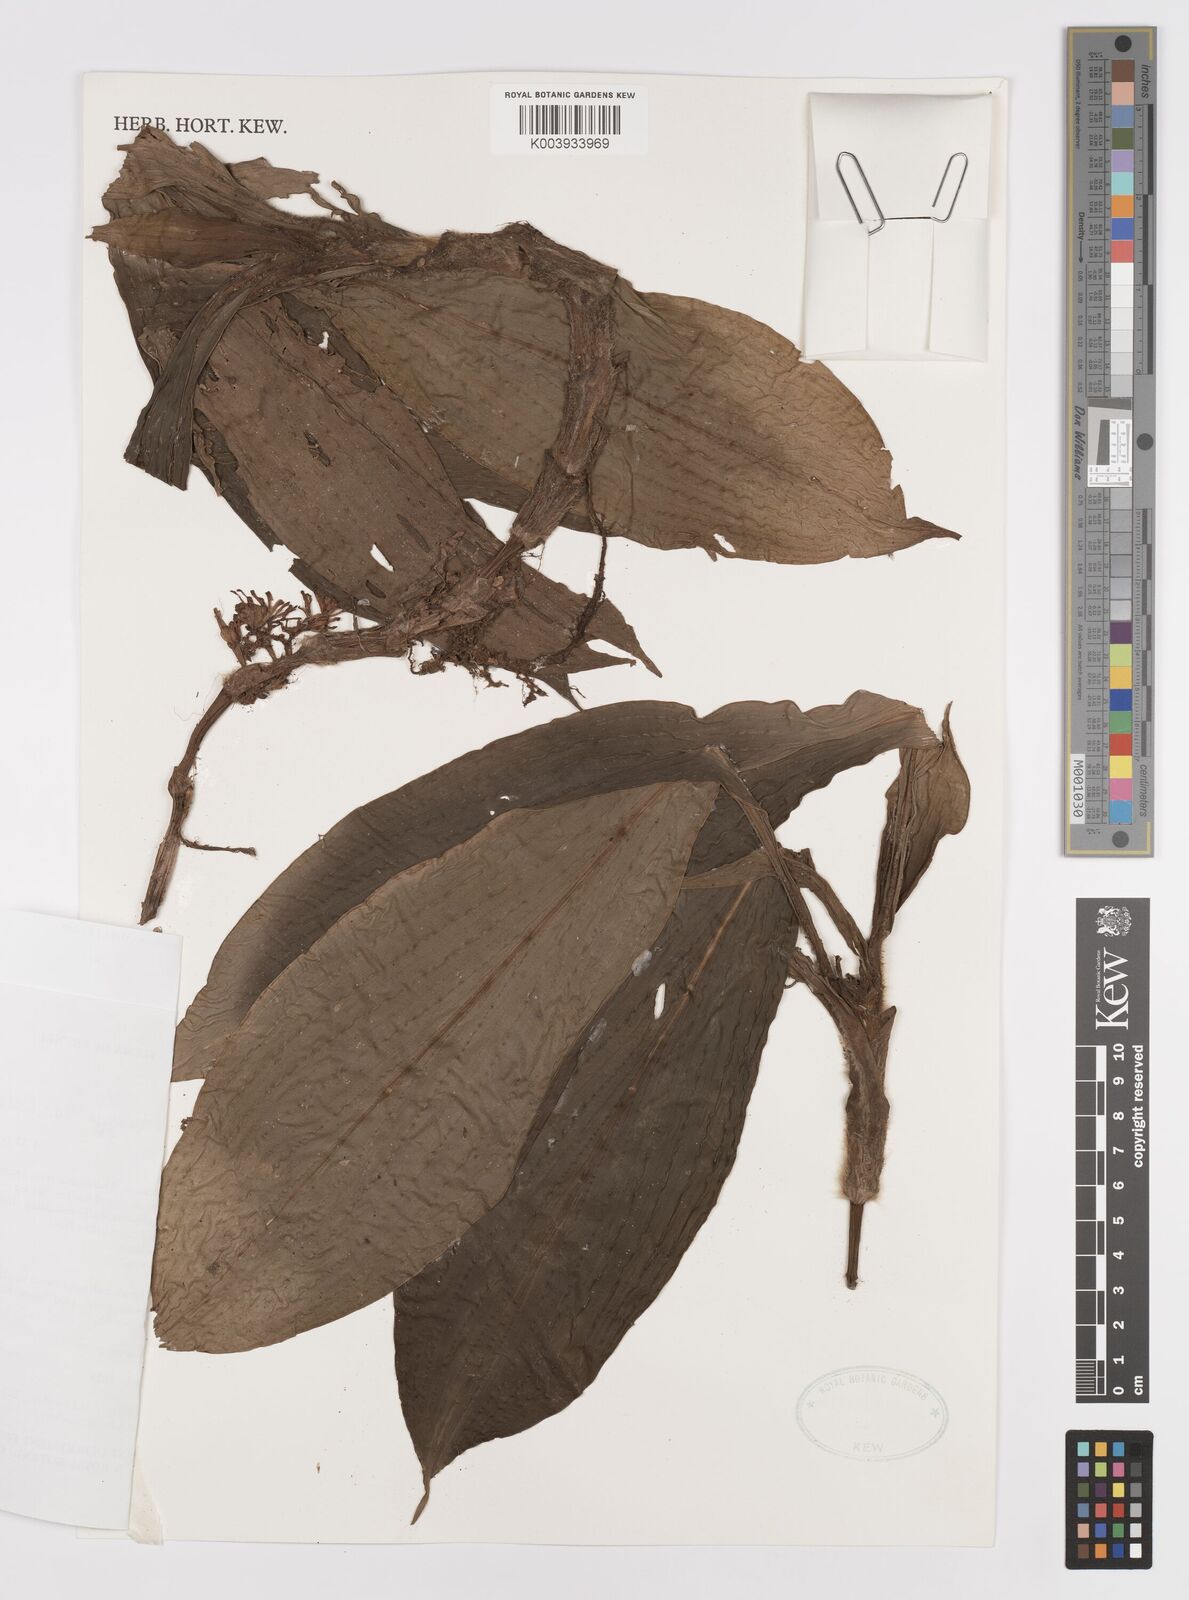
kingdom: Plantae
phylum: Tracheophyta
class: Liliopsida
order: Commelinales
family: Commelinaceae
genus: Amischotolype
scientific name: Amischotolype laxiflora
